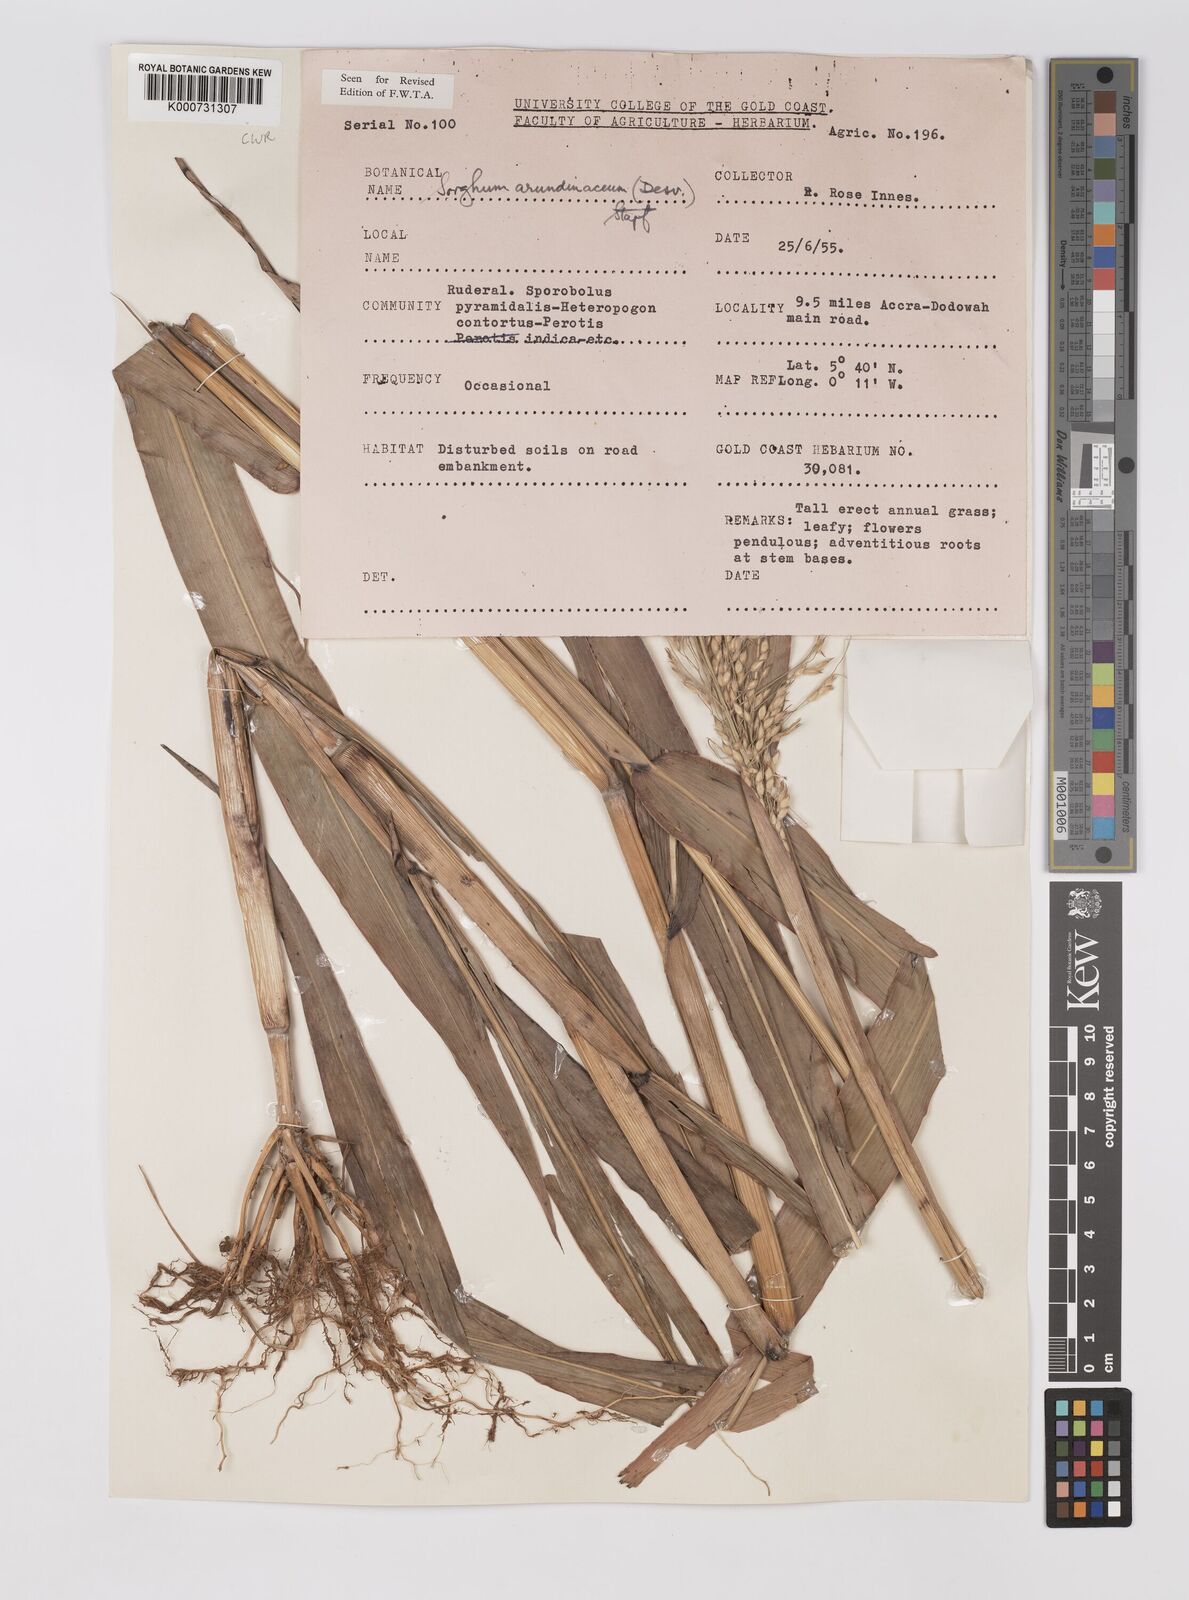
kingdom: Plantae
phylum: Tracheophyta
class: Liliopsida
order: Poales
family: Poaceae
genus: Sorghum
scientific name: Sorghum arundinaceum
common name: Sorghum
